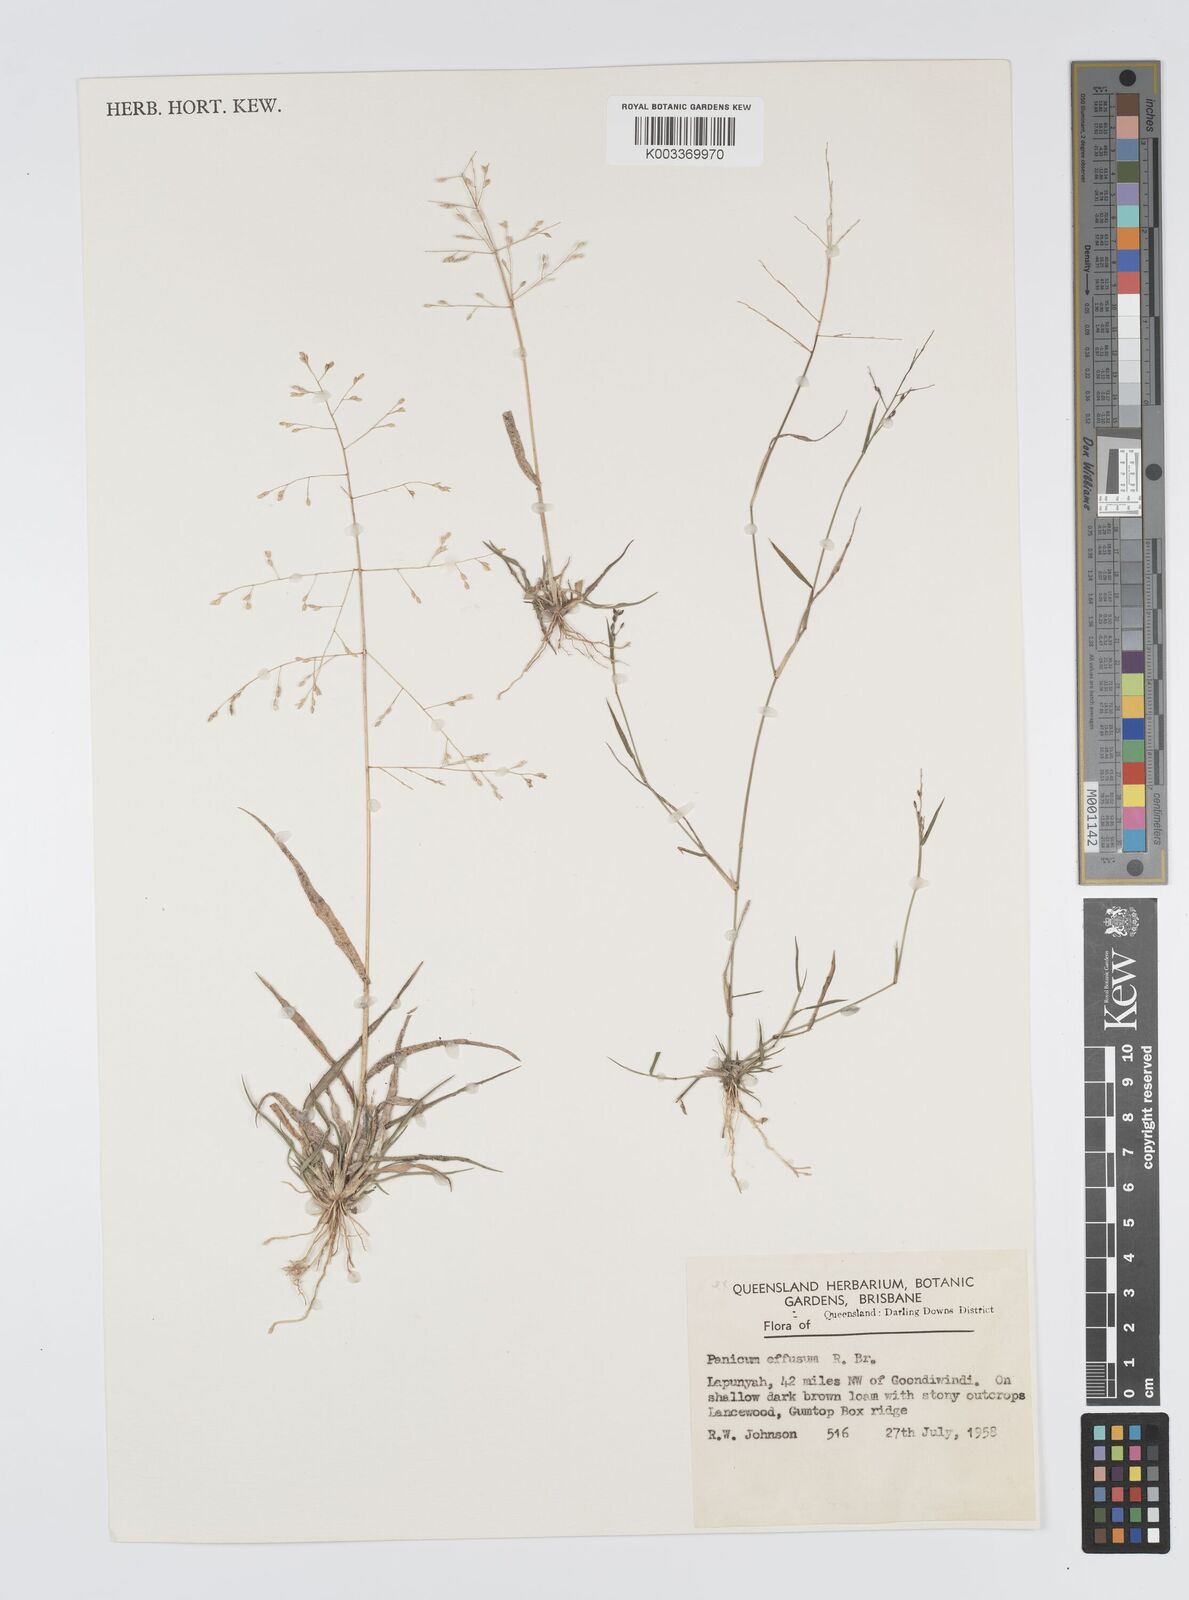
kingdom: Plantae
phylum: Tracheophyta
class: Liliopsida
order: Poales
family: Poaceae
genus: Panicum
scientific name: Panicum effusum
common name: Hairy panic grass
